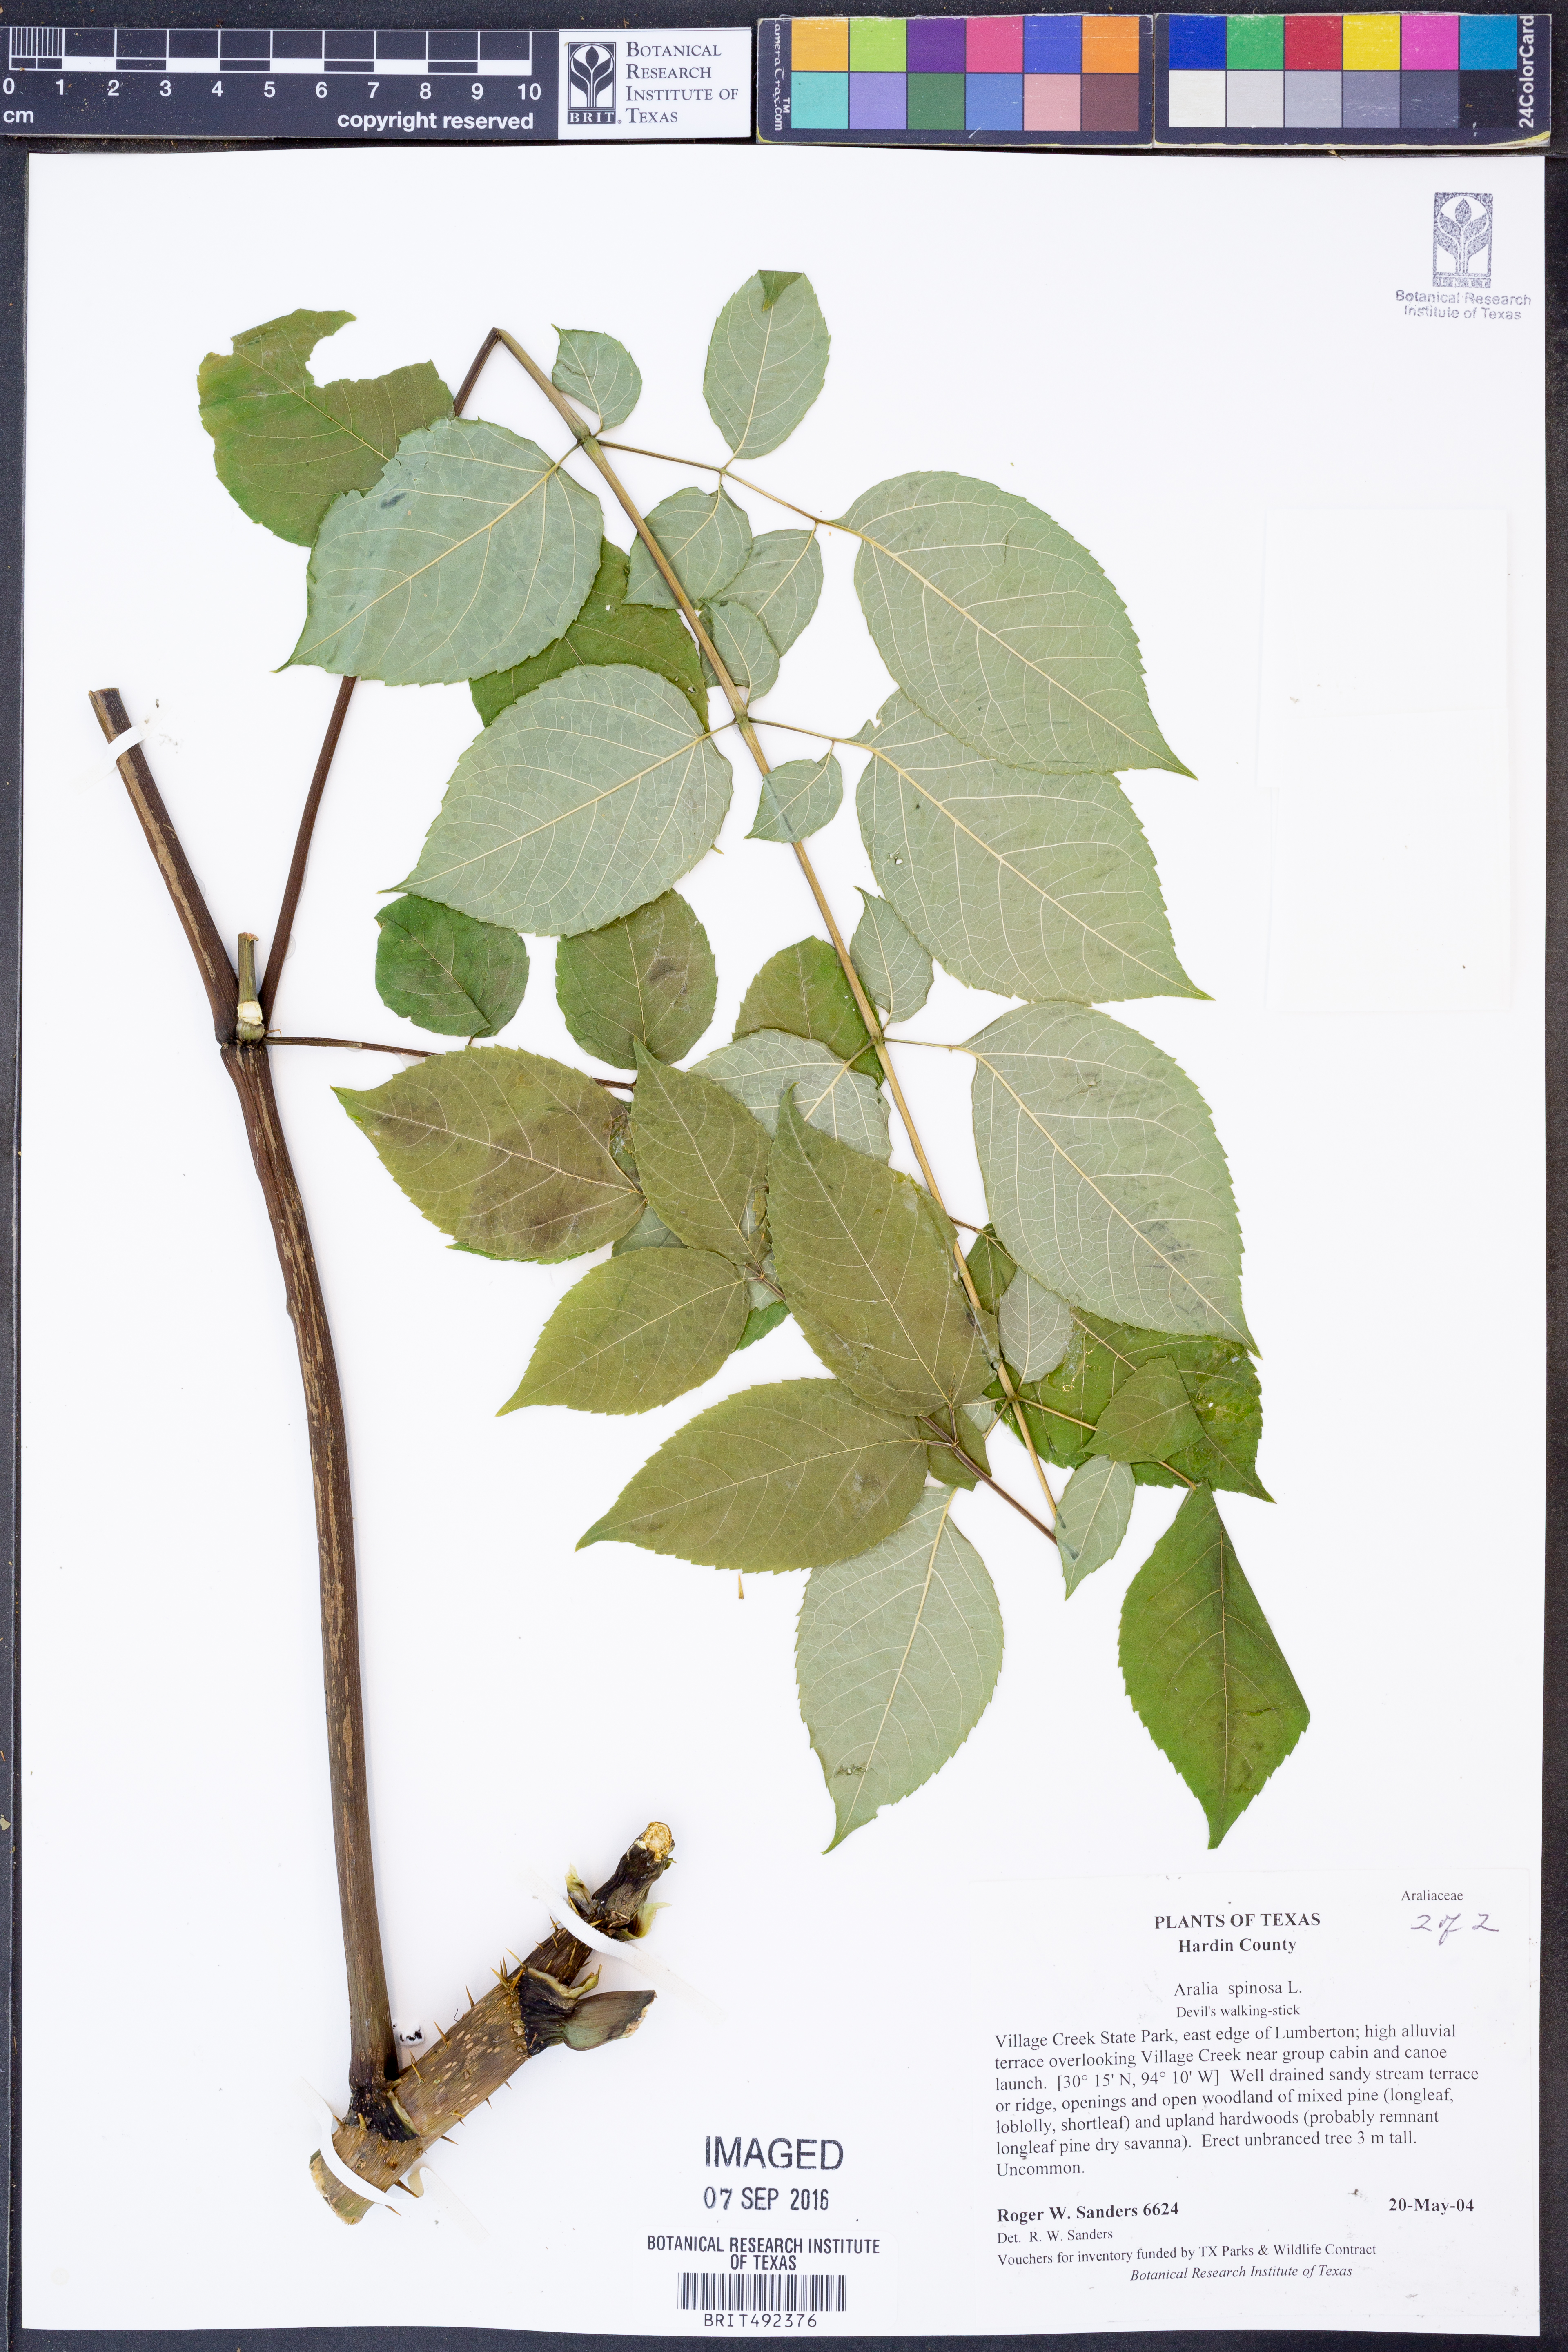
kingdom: Plantae
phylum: Tracheophyta
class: Magnoliopsida
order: Apiales
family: Araliaceae
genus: Aralia
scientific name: Aralia spinosa
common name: Hercules'-club
